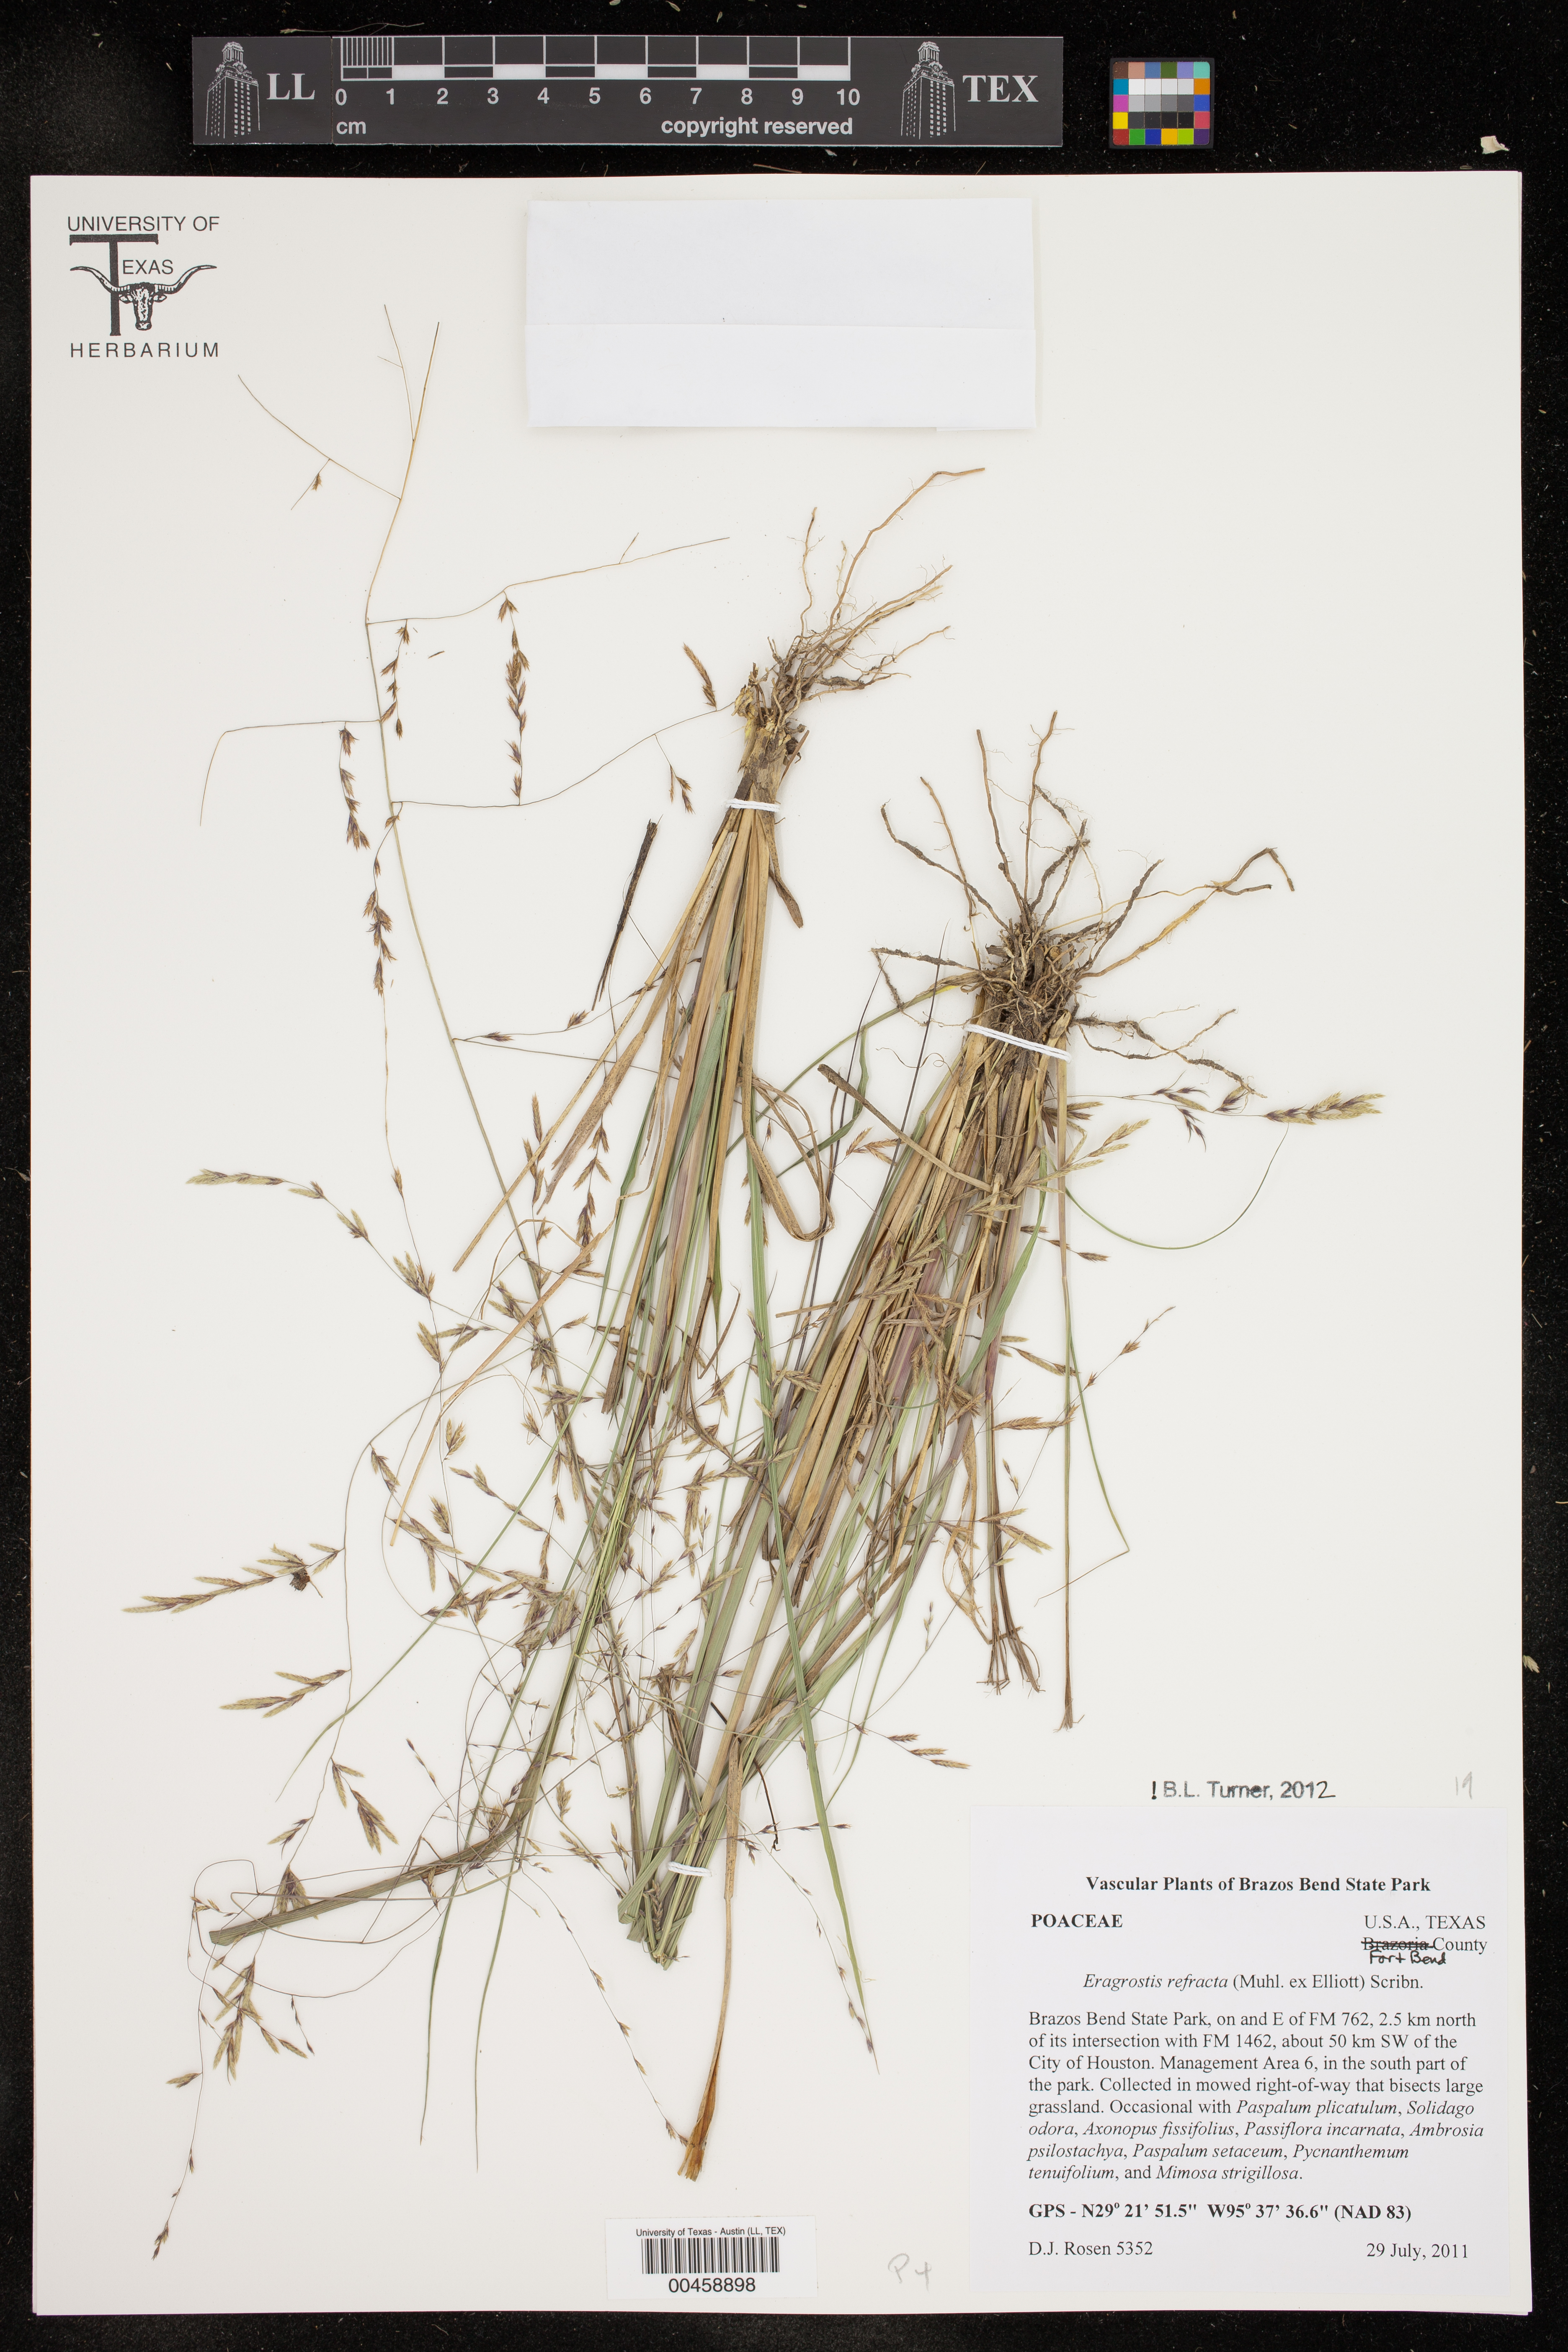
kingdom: Plantae
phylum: Tracheophyta
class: Liliopsida
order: Poales
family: Poaceae
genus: Eragrostis
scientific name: Eragrostis refracta
